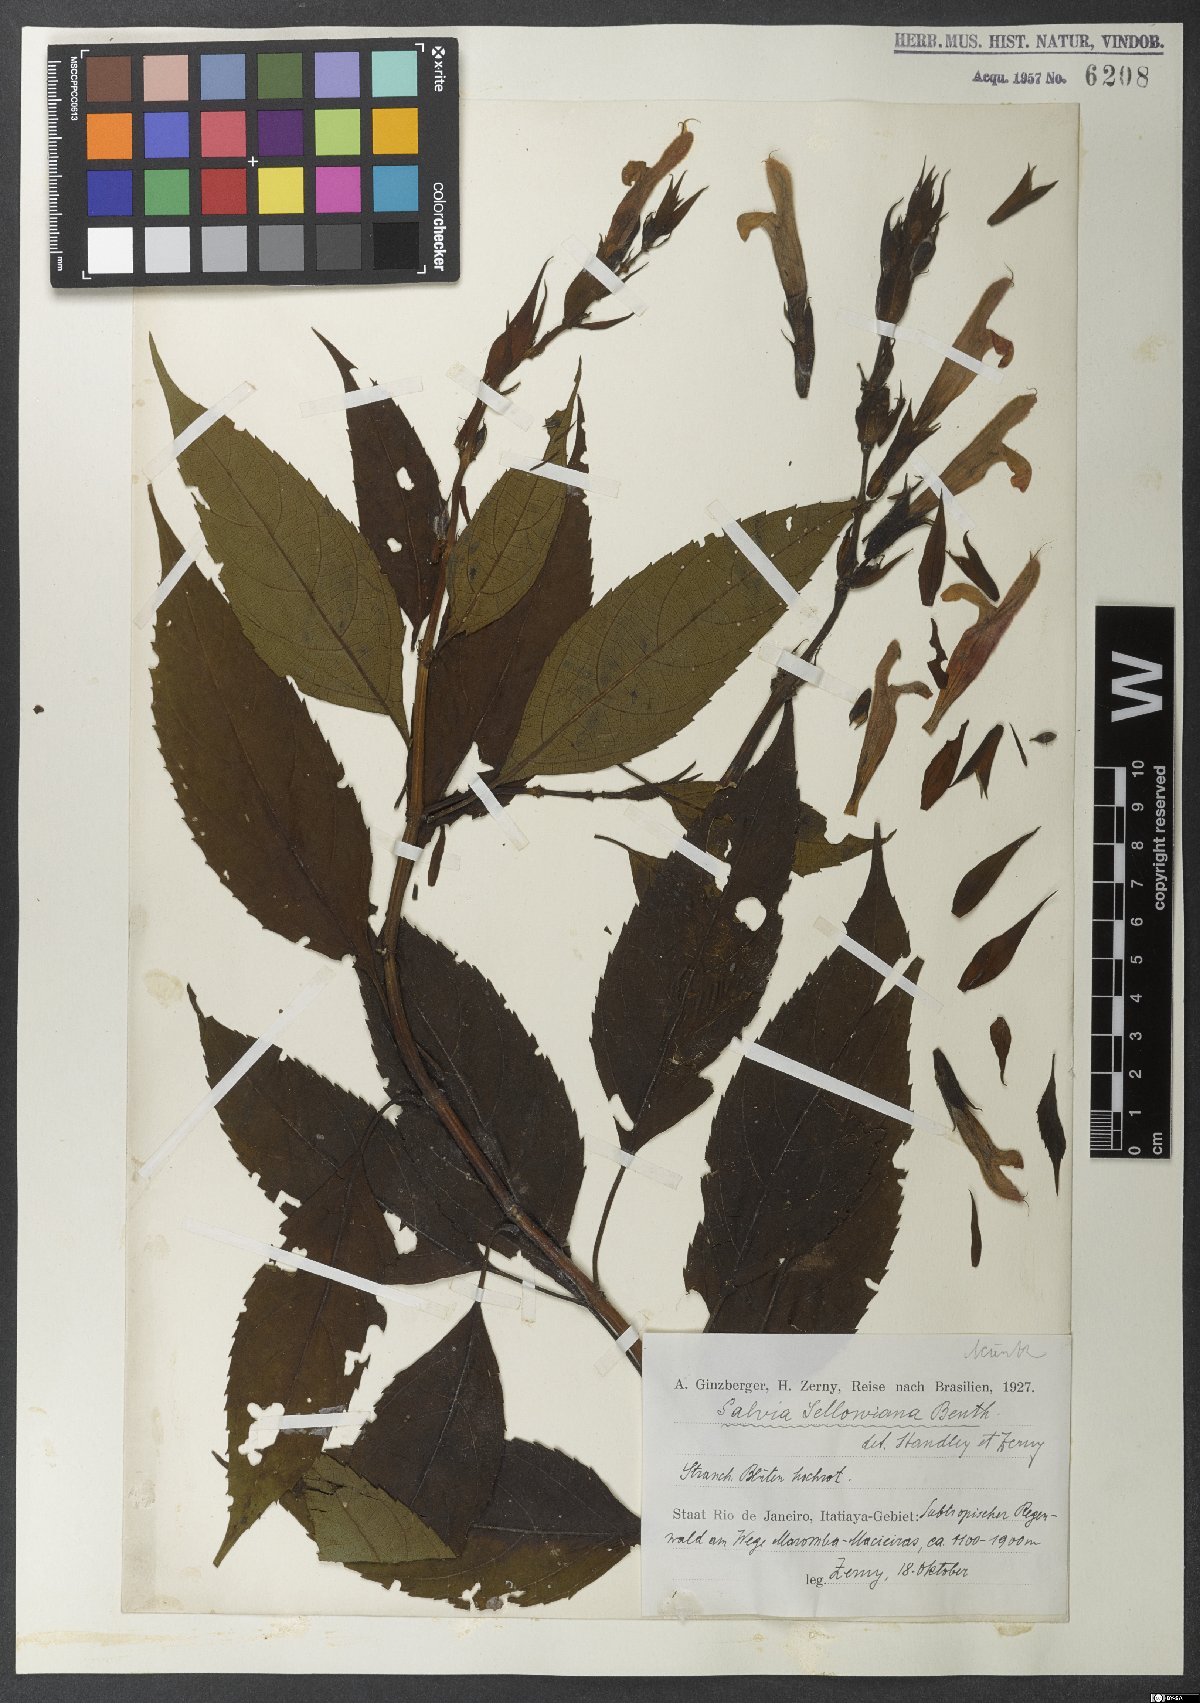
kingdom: Plantae
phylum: Tracheophyta
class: Magnoliopsida
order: Lamiales
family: Lamiaceae
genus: Salvia
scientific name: Salvia sellowiana
